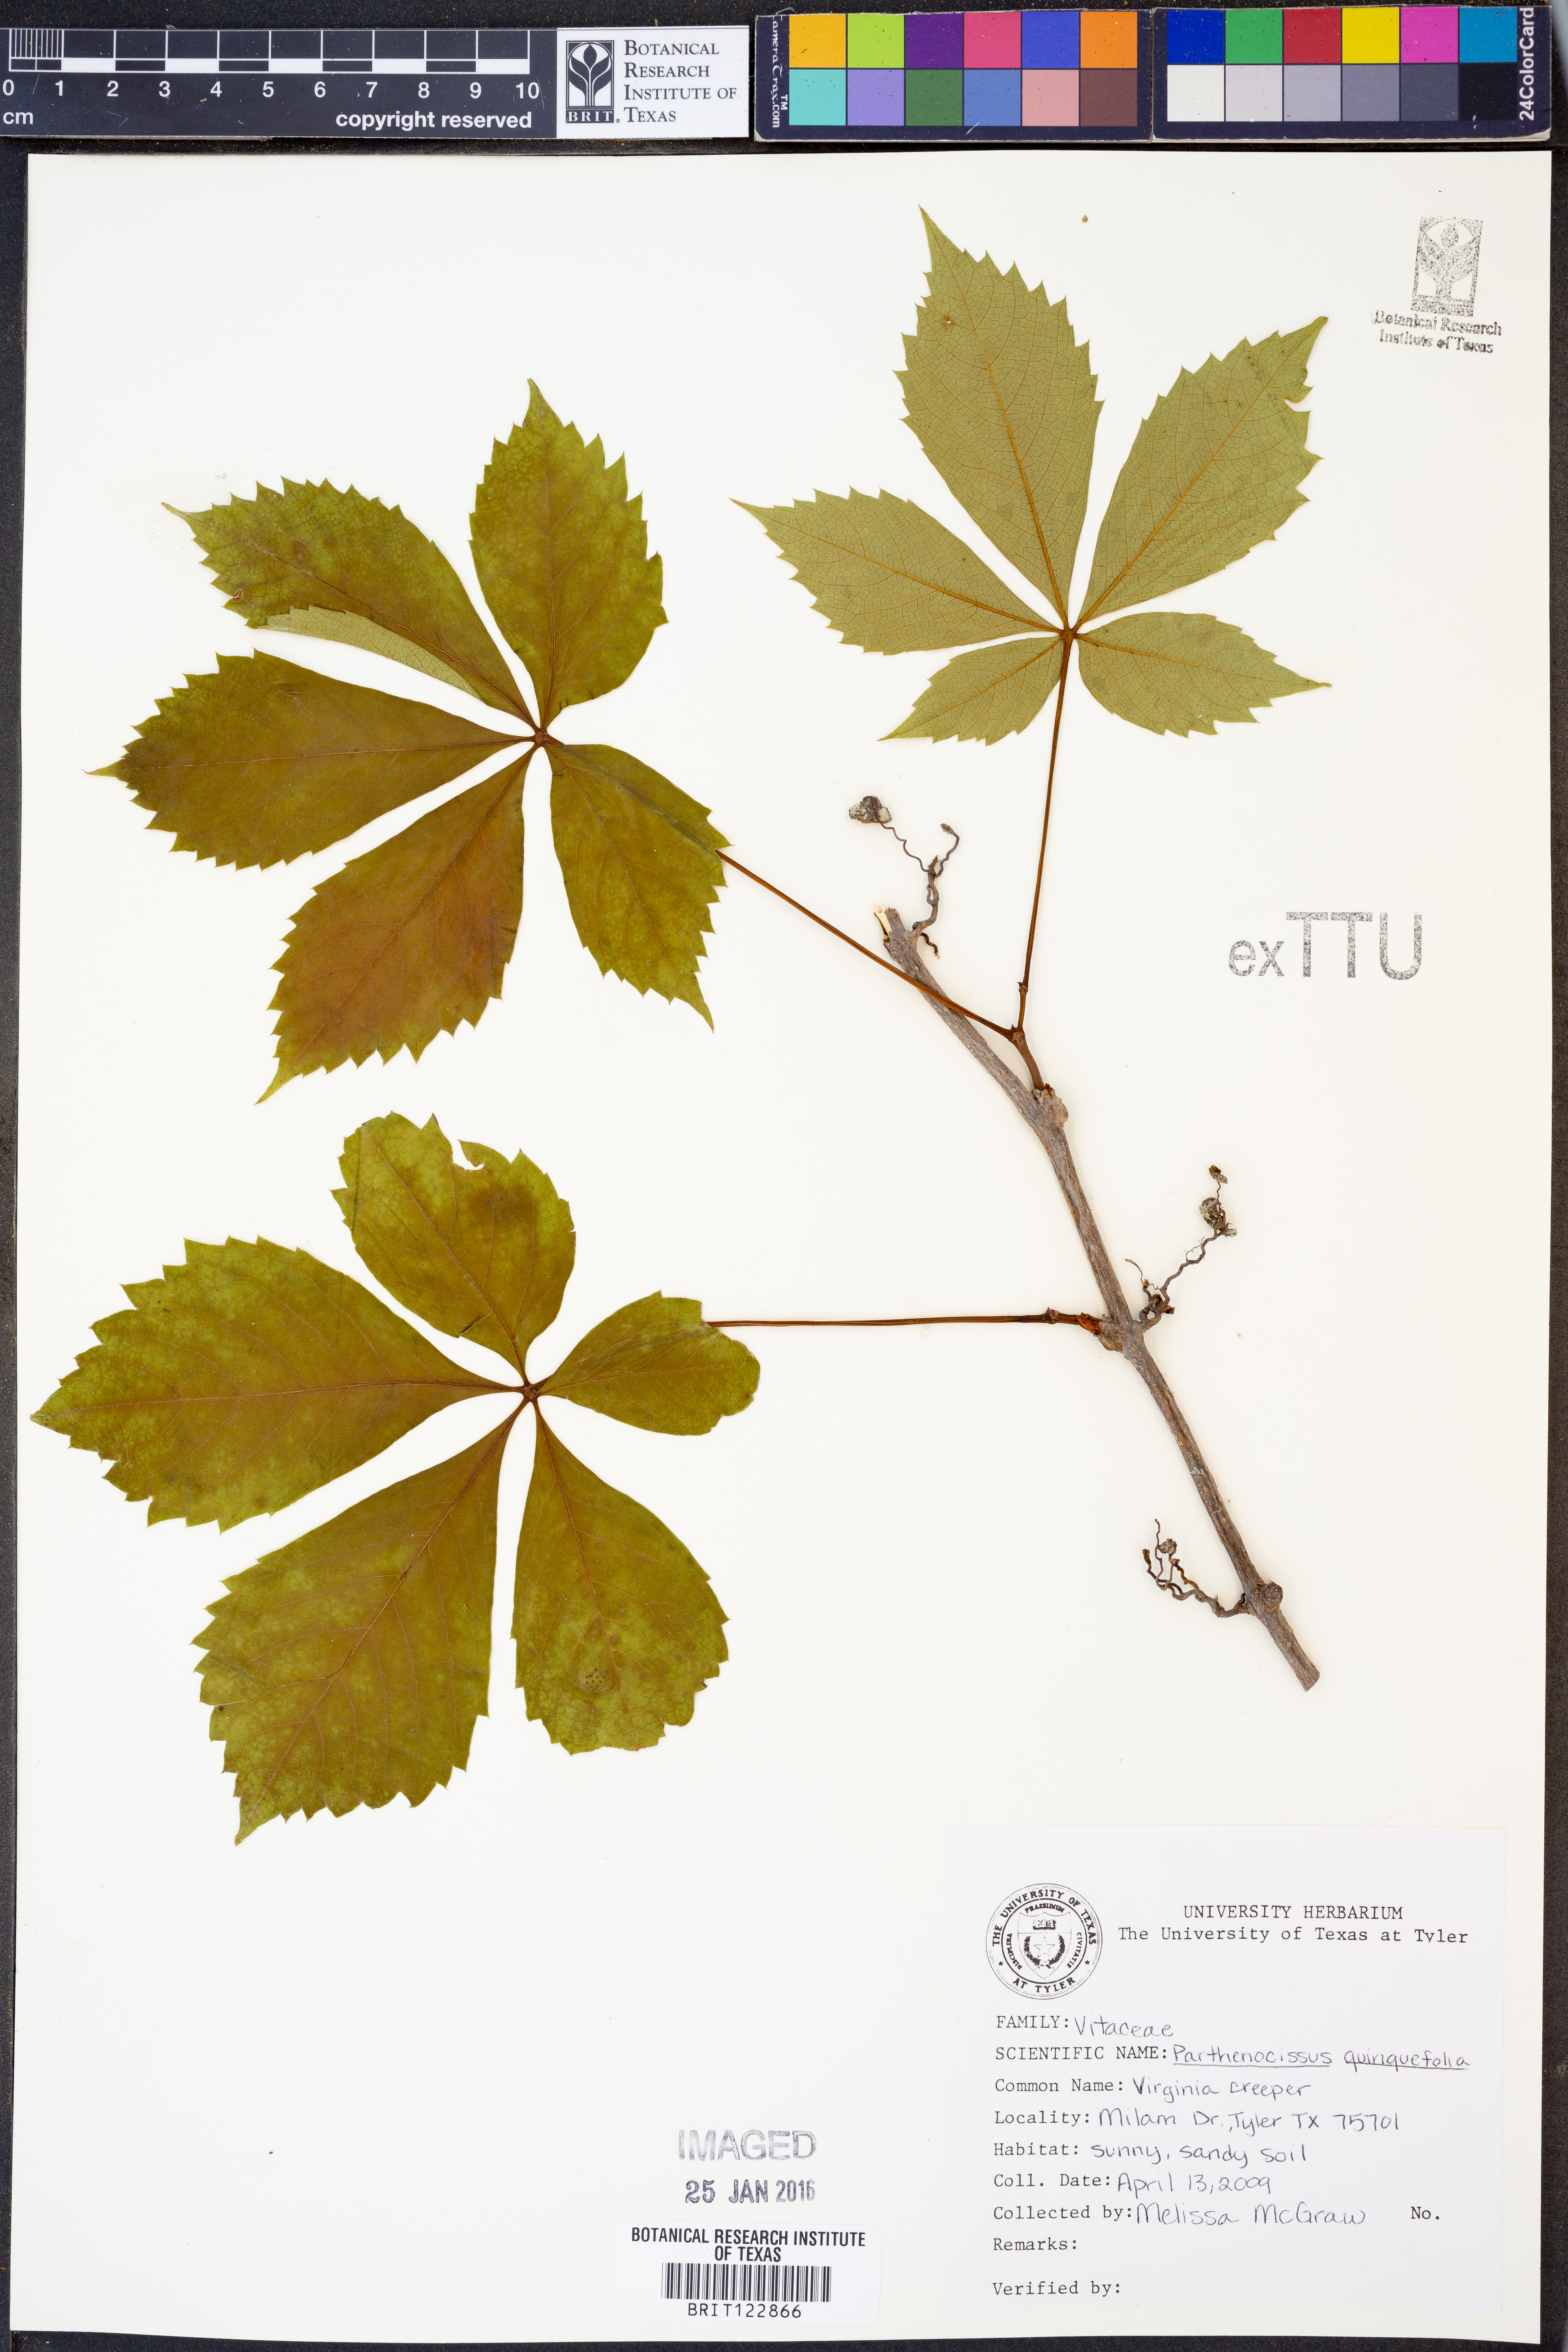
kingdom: Plantae
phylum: Tracheophyta
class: Magnoliopsida
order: Vitales
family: Vitaceae
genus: Parthenocissus
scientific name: Parthenocissus quinquefolia
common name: Virginia-creeper
